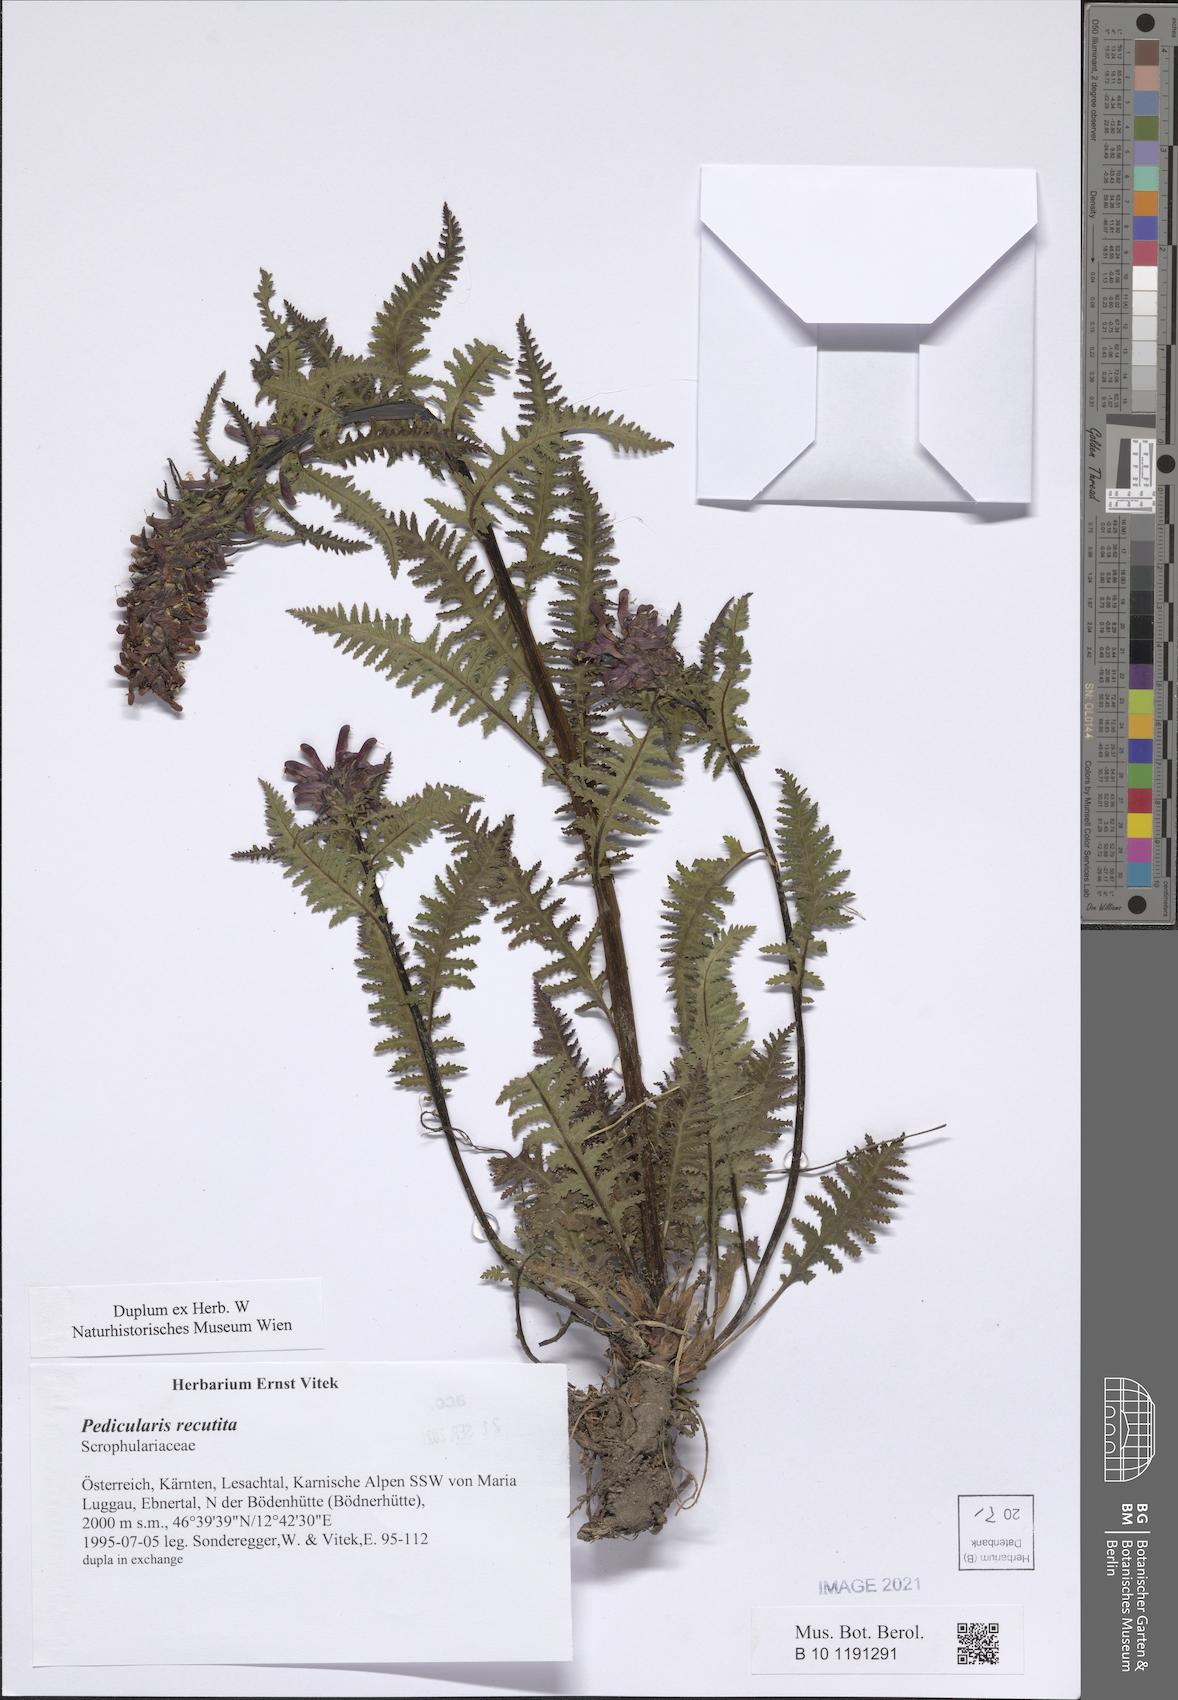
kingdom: Plantae
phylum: Tracheophyta
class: Magnoliopsida
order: Lamiales
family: Orobanchaceae
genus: Pedicularis
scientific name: Pedicularis recutita
